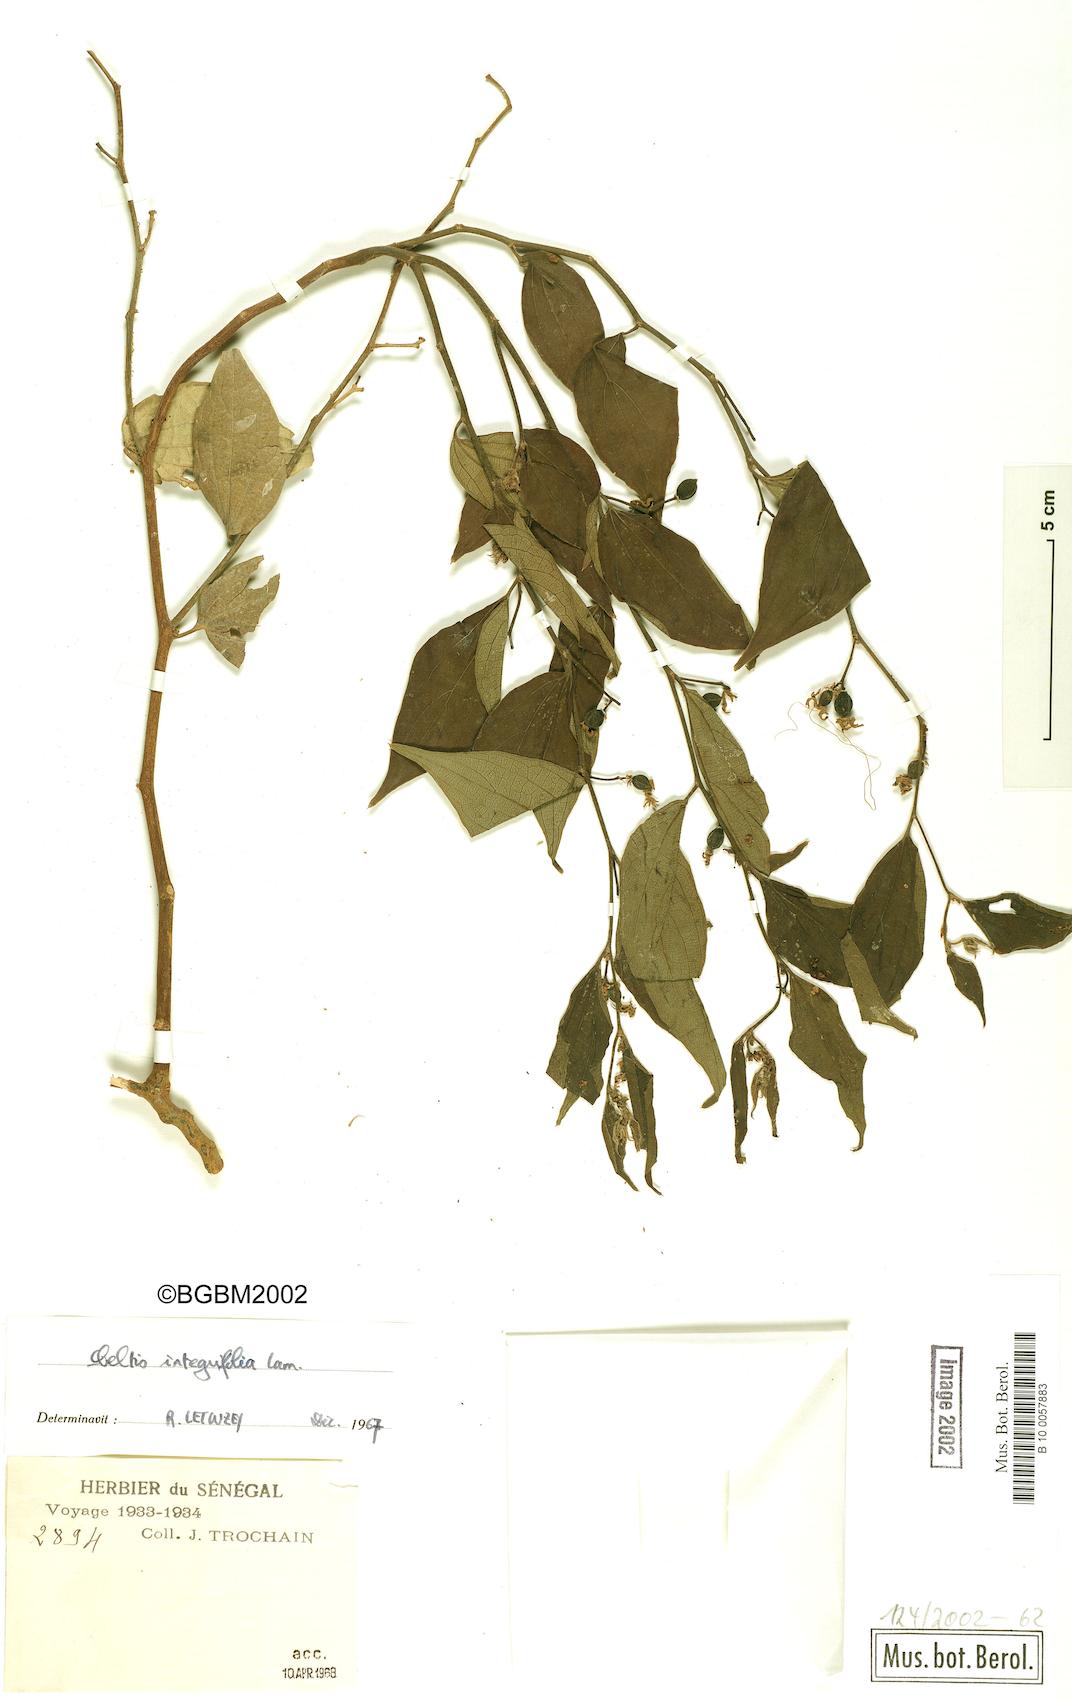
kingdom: Plantae
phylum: Tracheophyta
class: Magnoliopsida
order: Rosales
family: Cannabaceae
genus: Celtis
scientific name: Celtis toka
